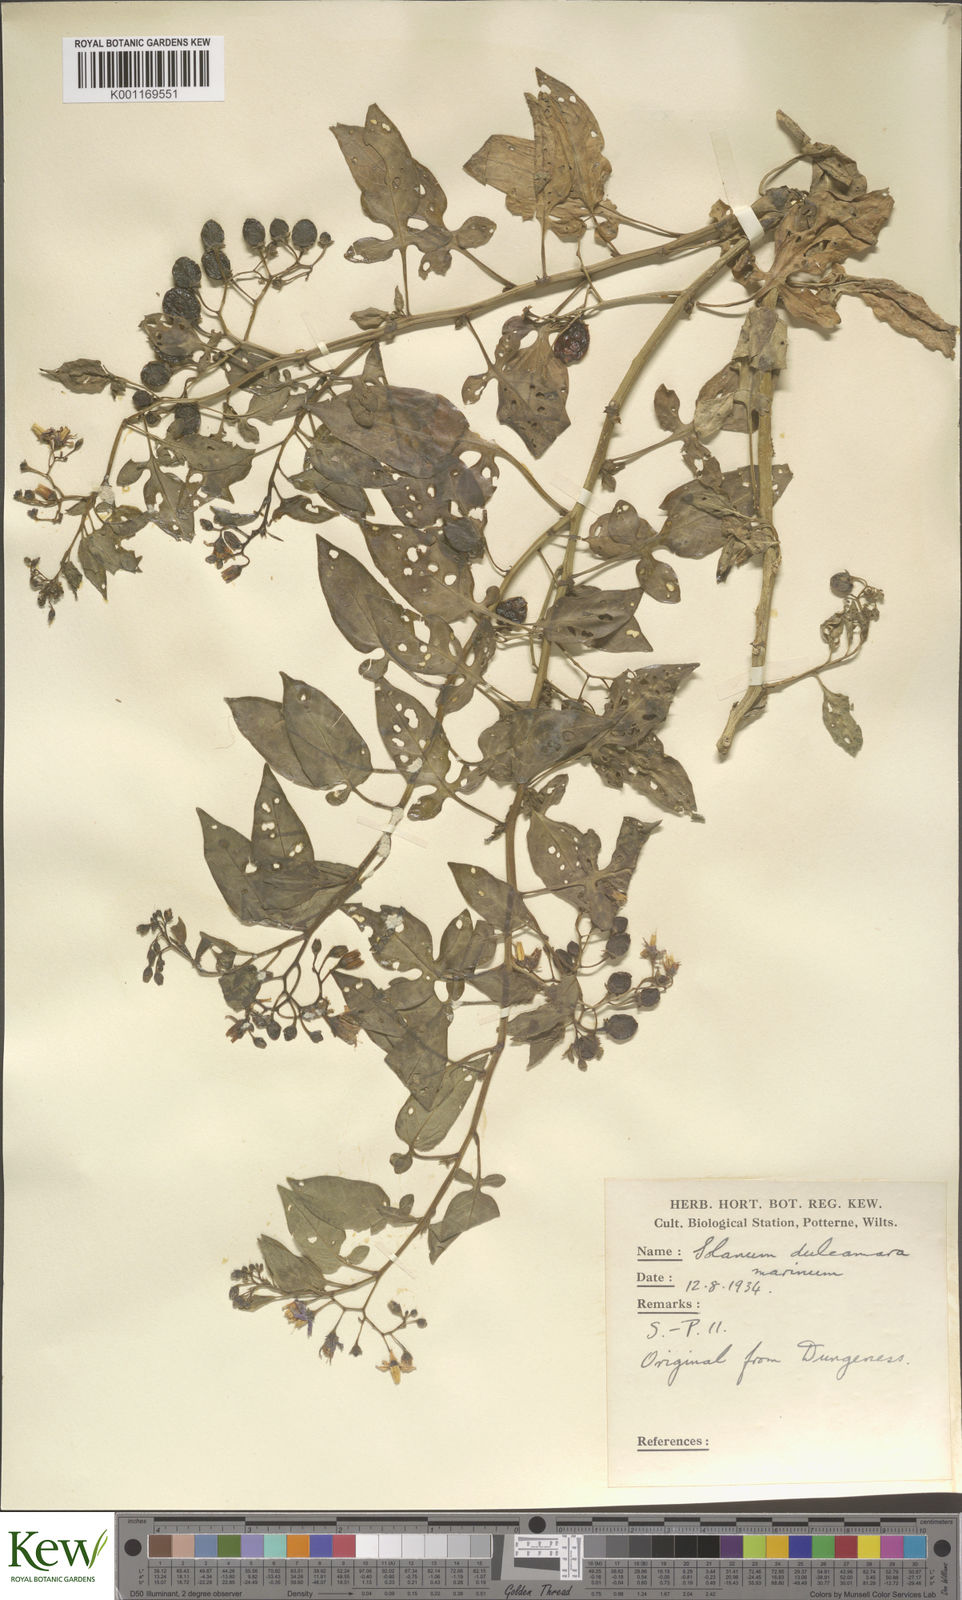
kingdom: Plantae
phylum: Tracheophyta
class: Magnoliopsida
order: Solanales
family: Solanaceae
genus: Solanum
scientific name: Solanum dulcamara
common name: Climbing nightshade
